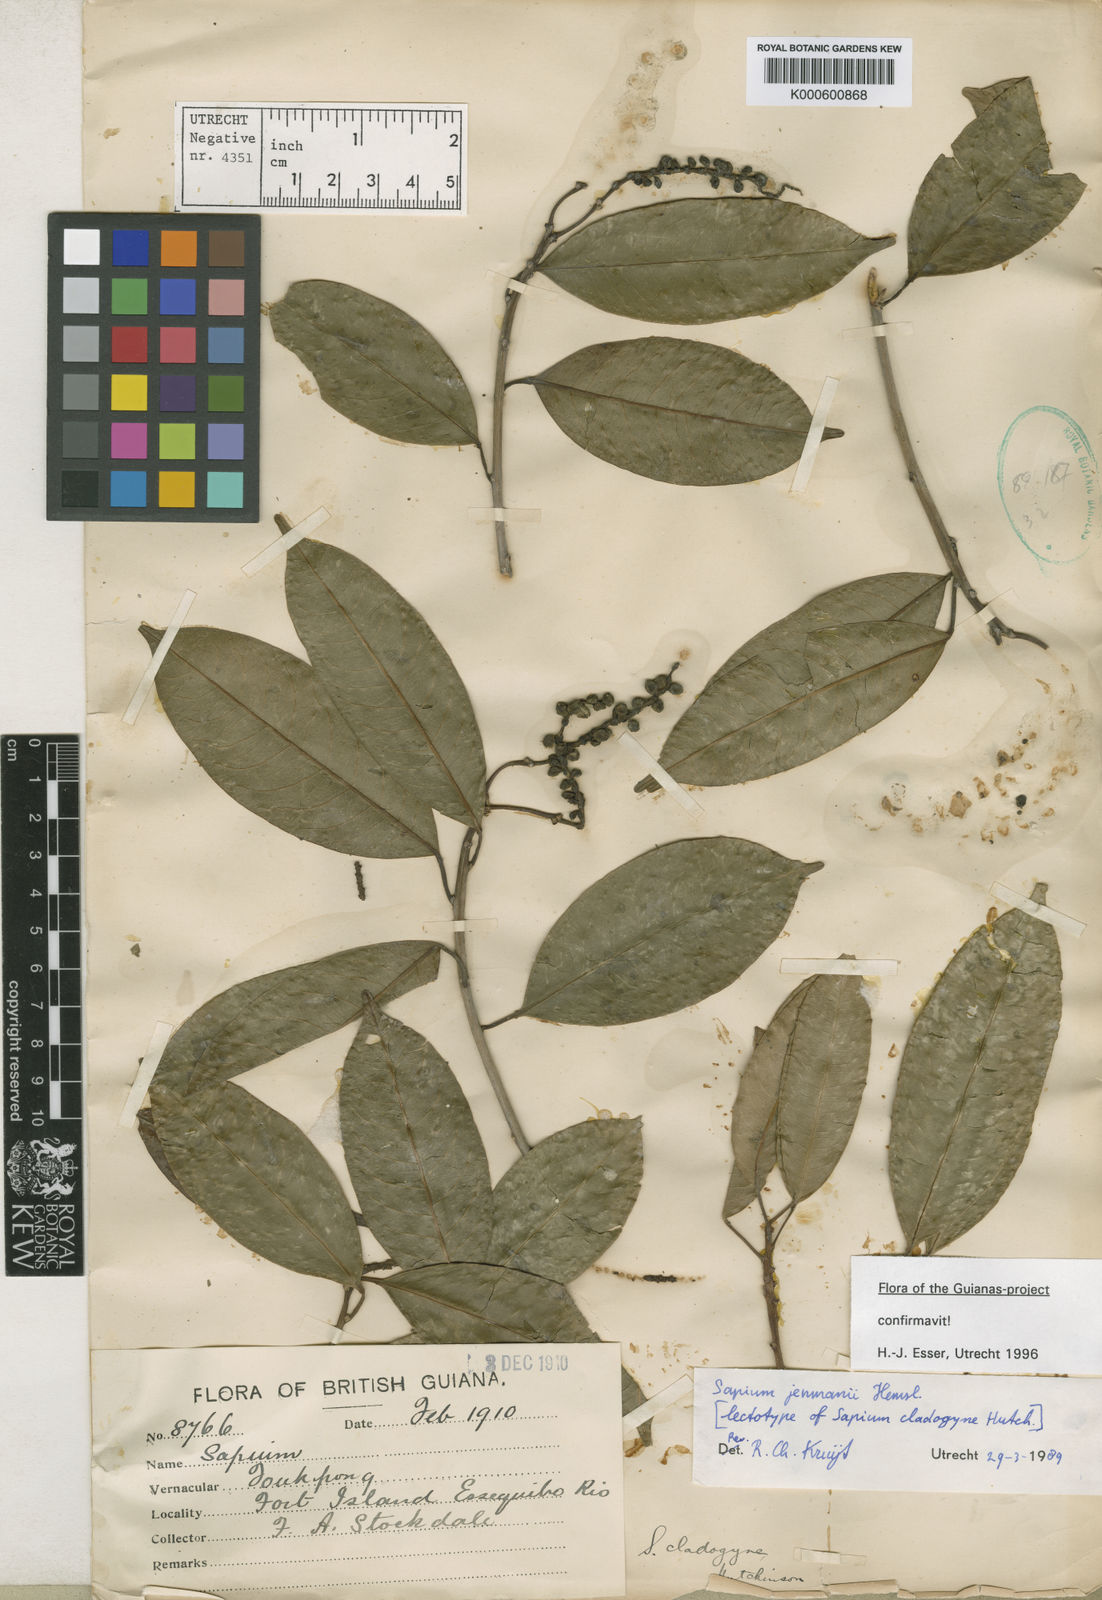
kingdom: Plantae
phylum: Tracheophyta
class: Magnoliopsida
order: Malpighiales
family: Euphorbiaceae
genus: Sapium
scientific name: Sapium jenmannii
